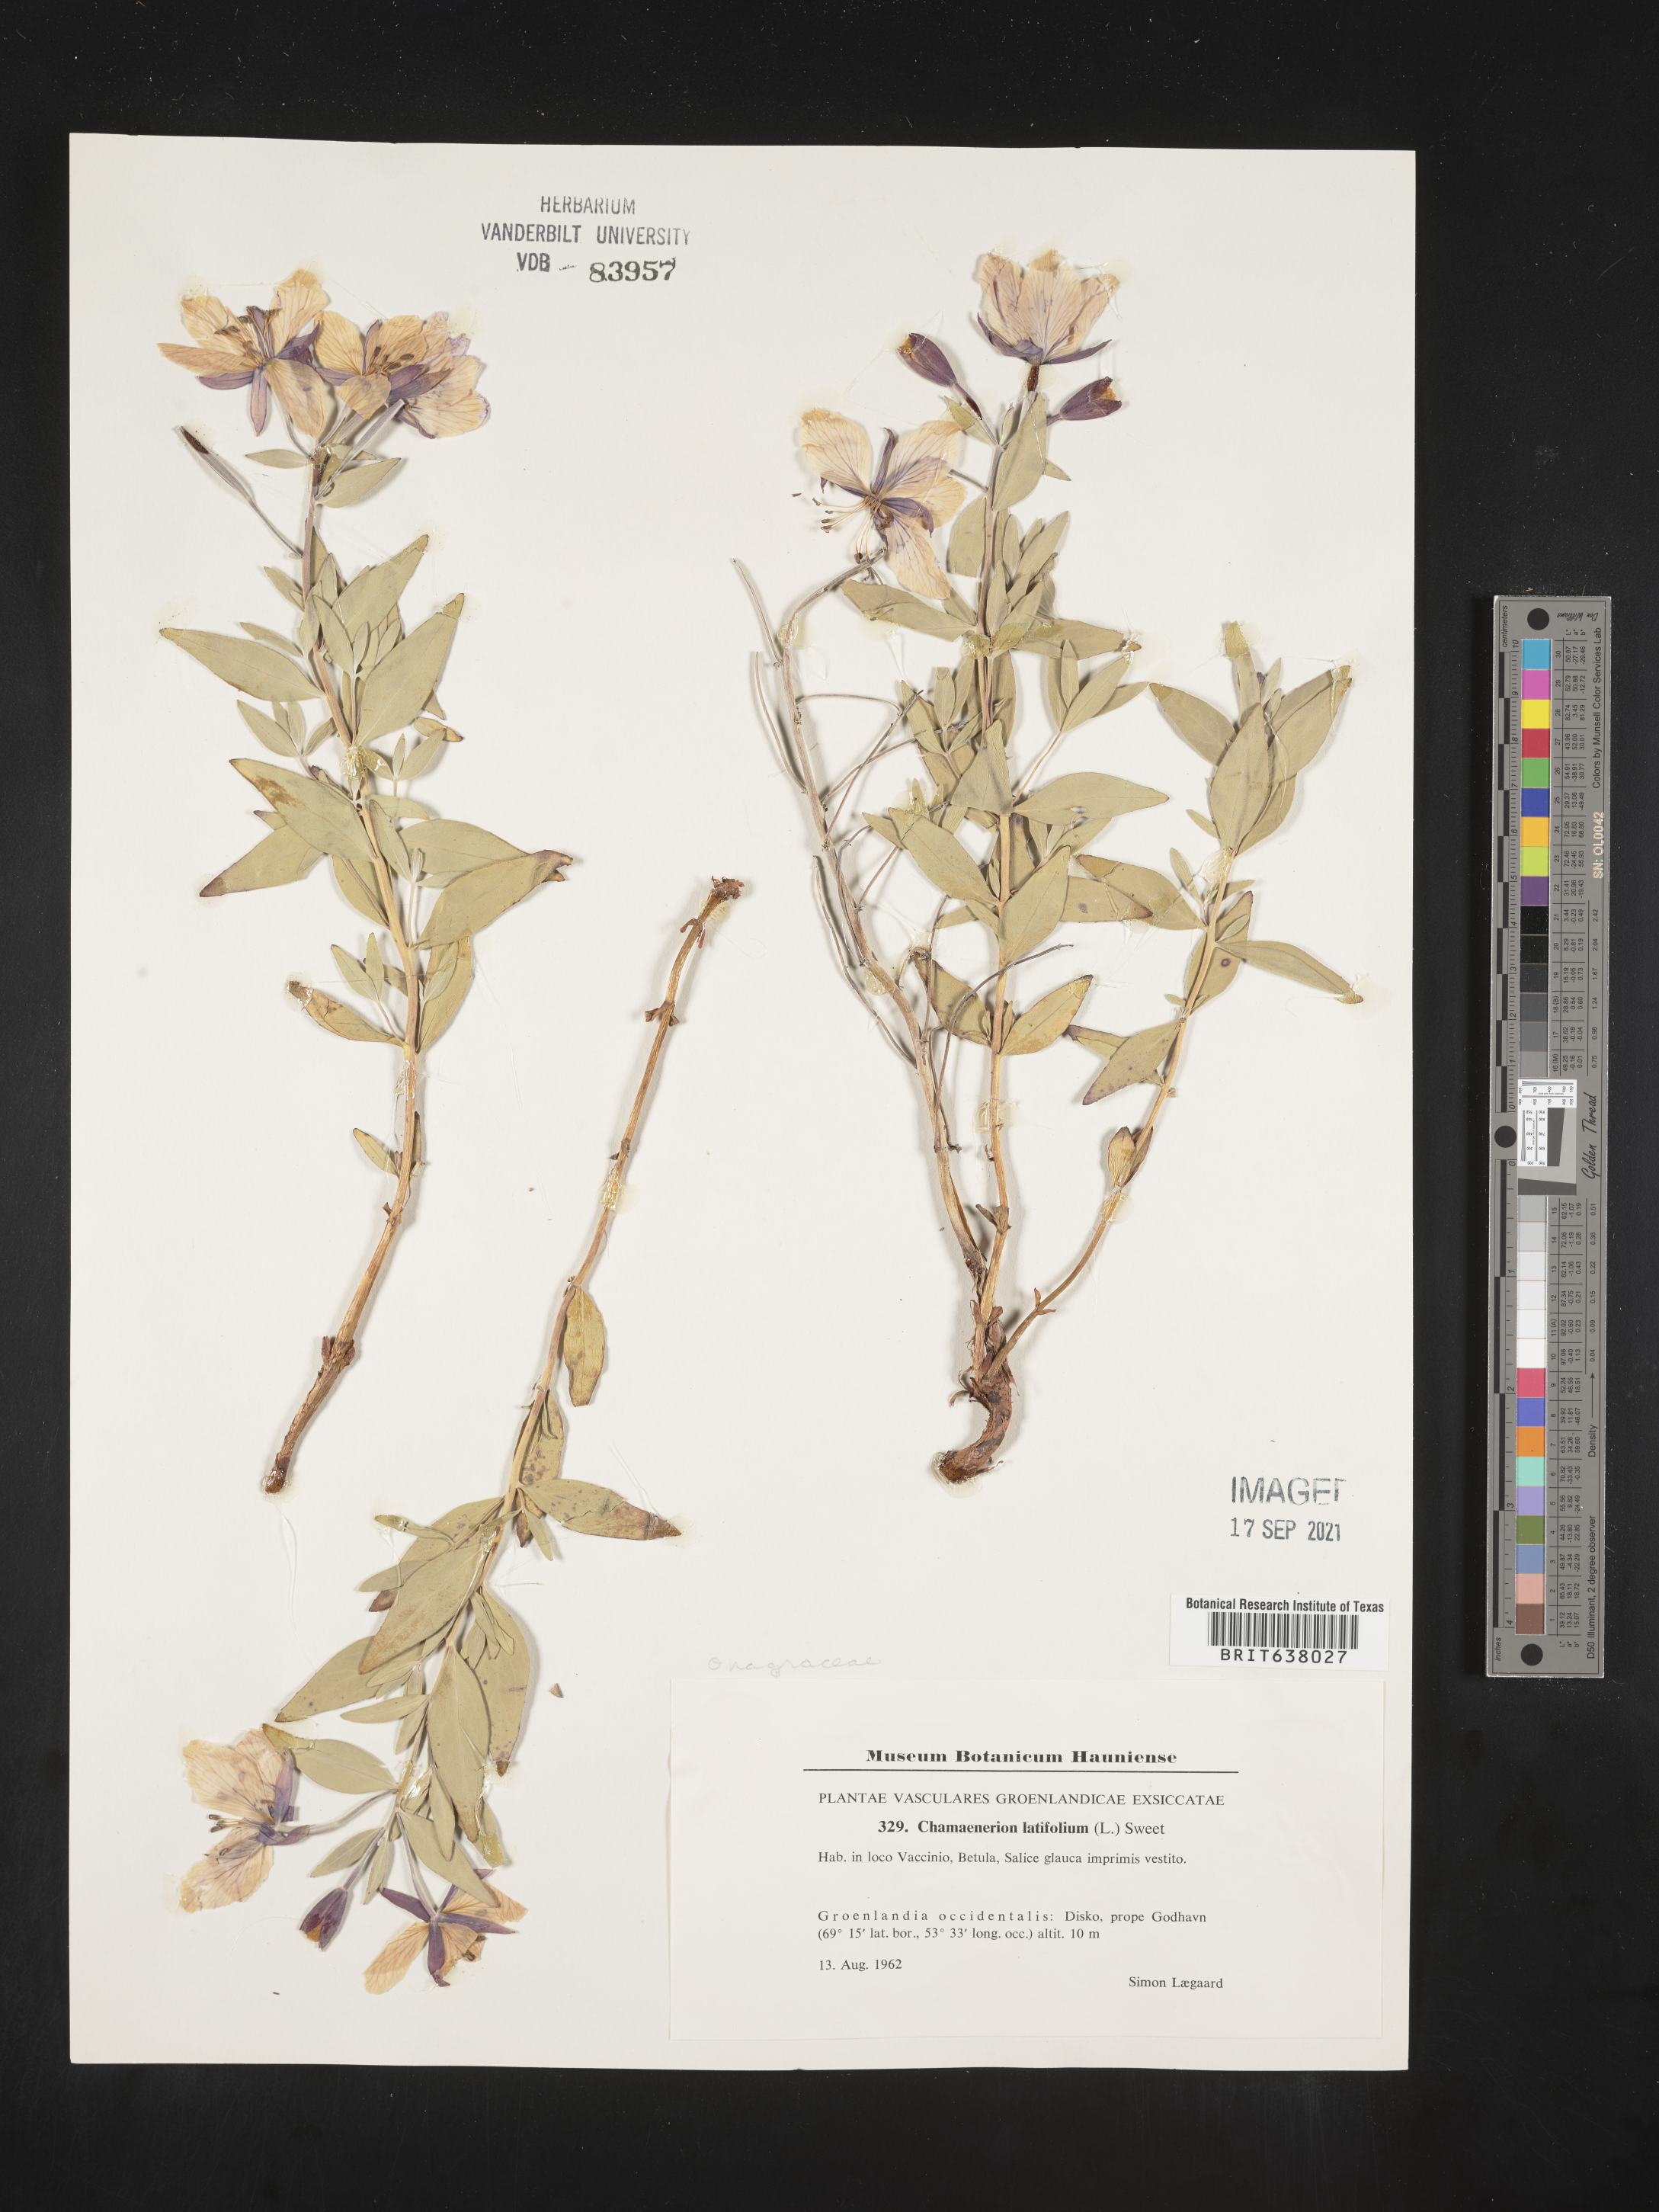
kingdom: Plantae
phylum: Tracheophyta
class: Magnoliopsida
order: Myrtales
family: Onagraceae
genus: Chamaenerion
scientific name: Chamaenerion
